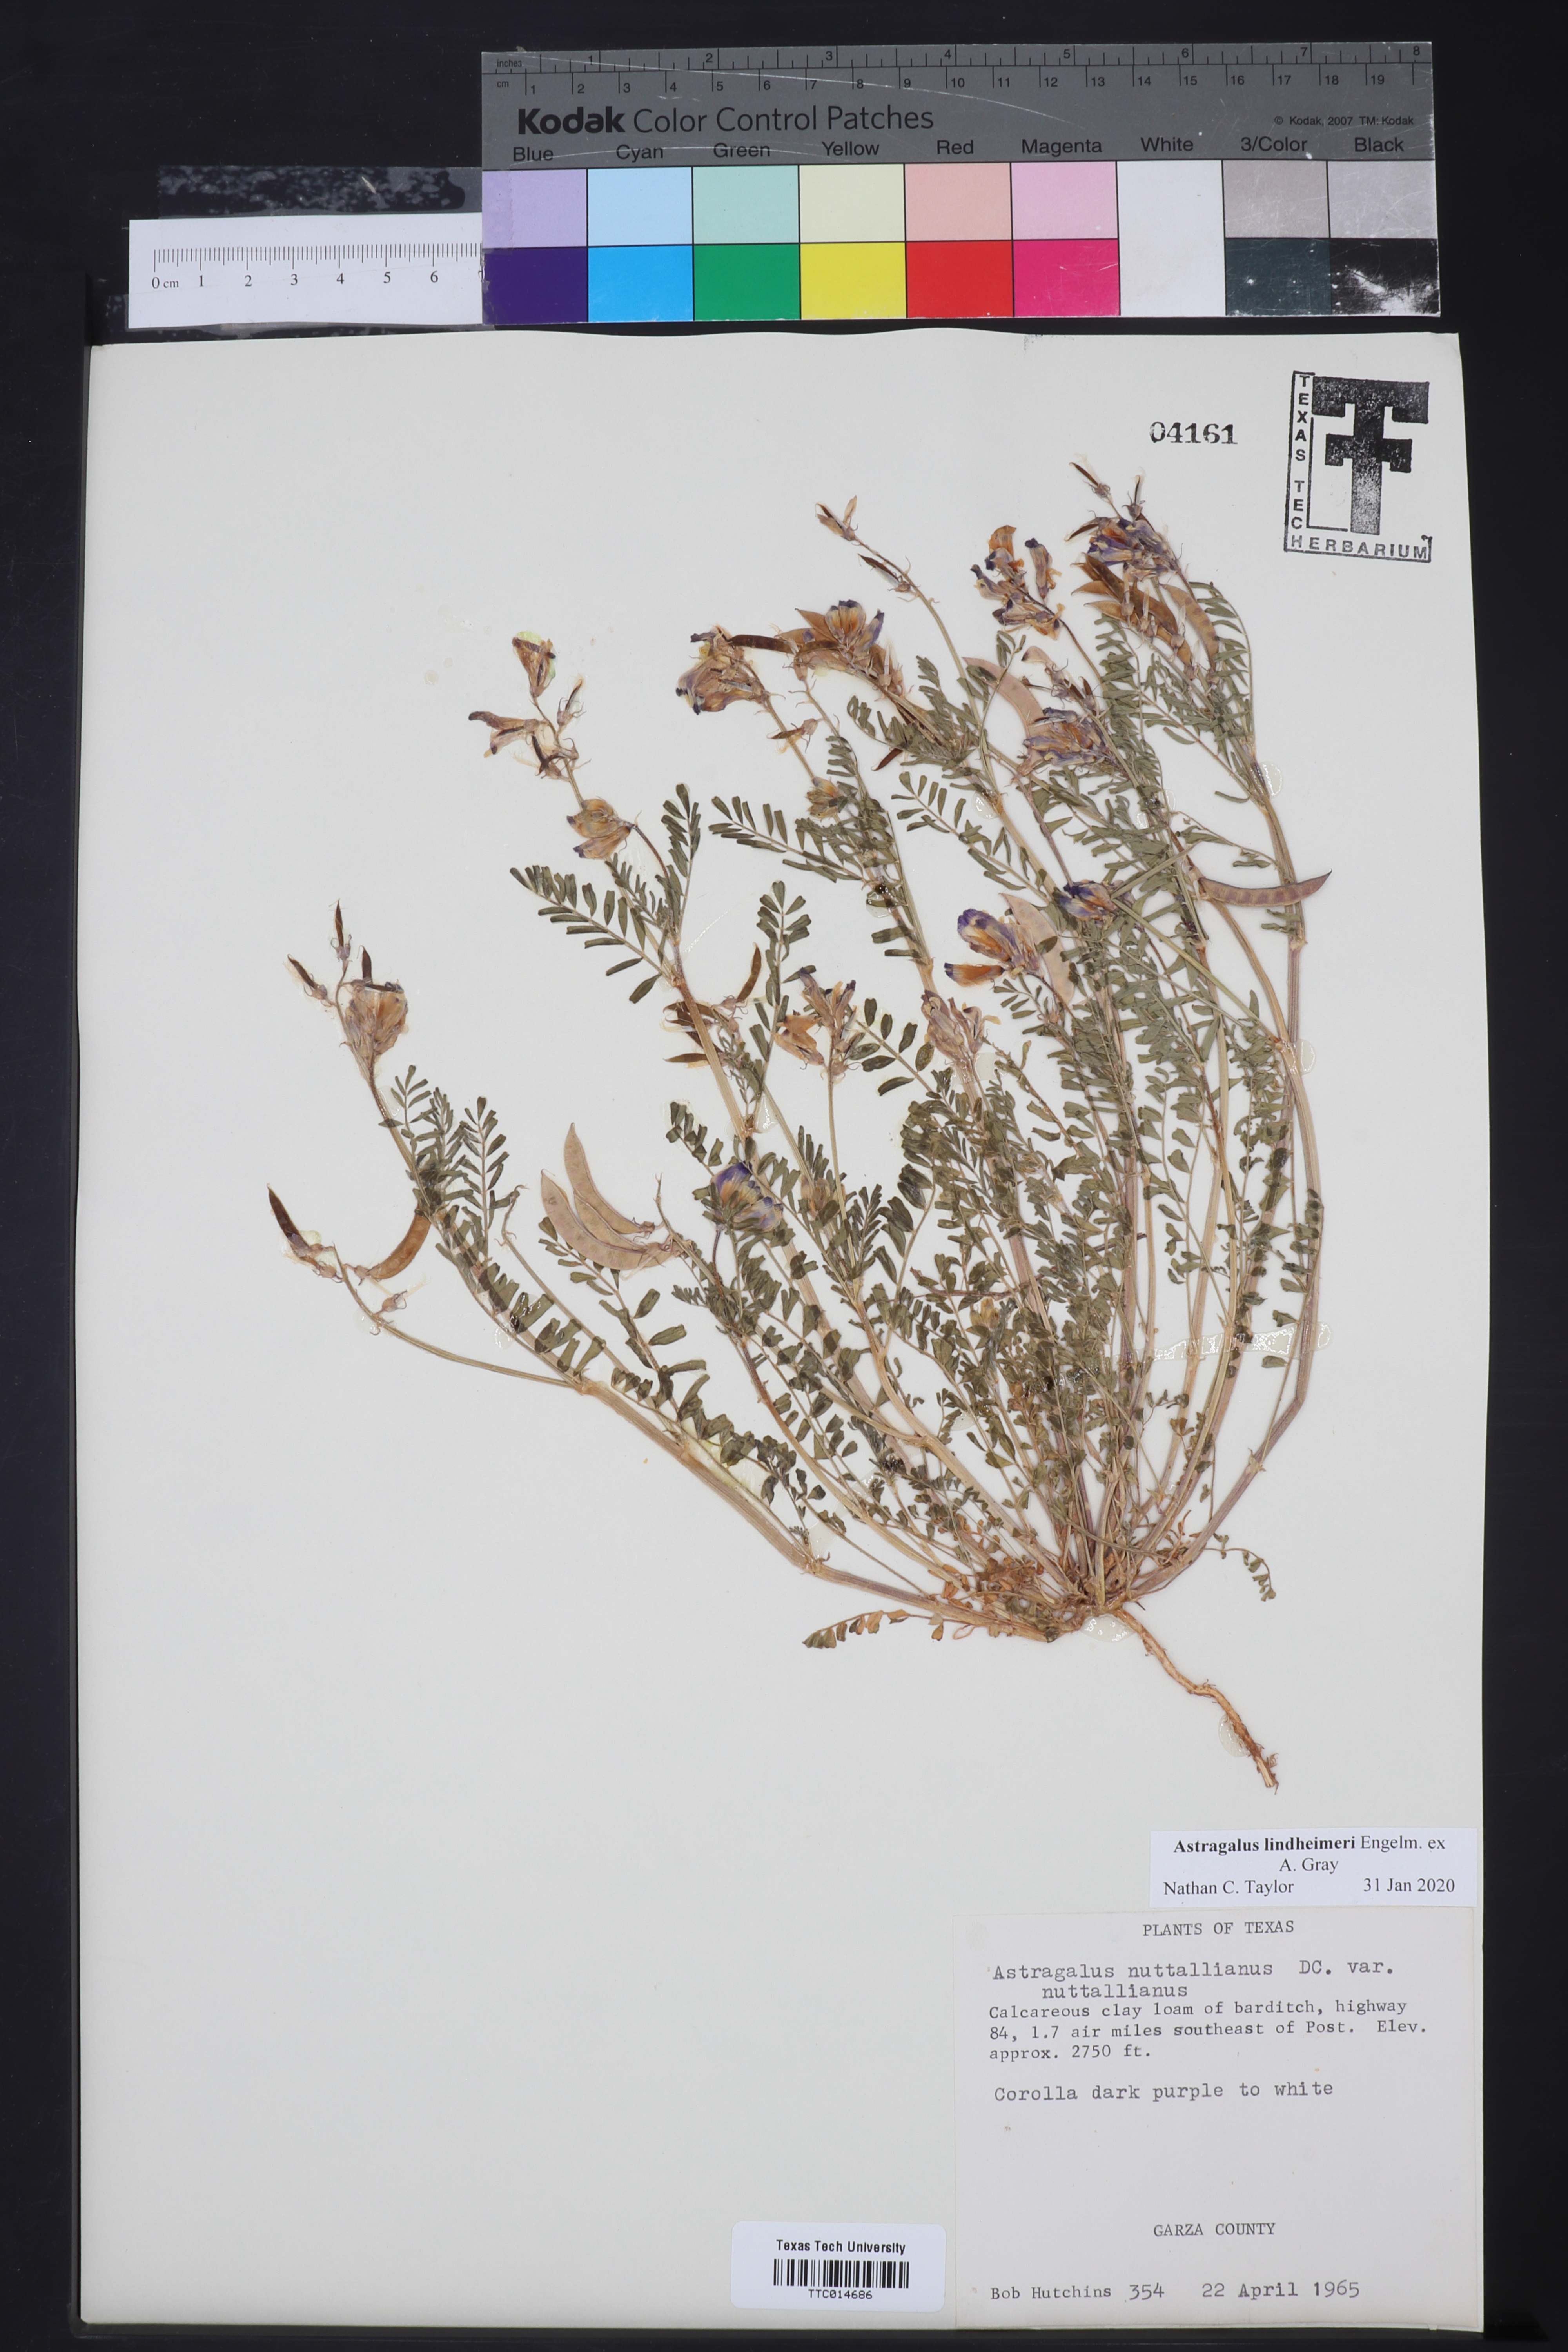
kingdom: Plantae
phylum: Tracheophyta
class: Magnoliopsida
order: Fabales
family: Fabaceae
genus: Astragalus
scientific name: Astragalus lindheimeri
